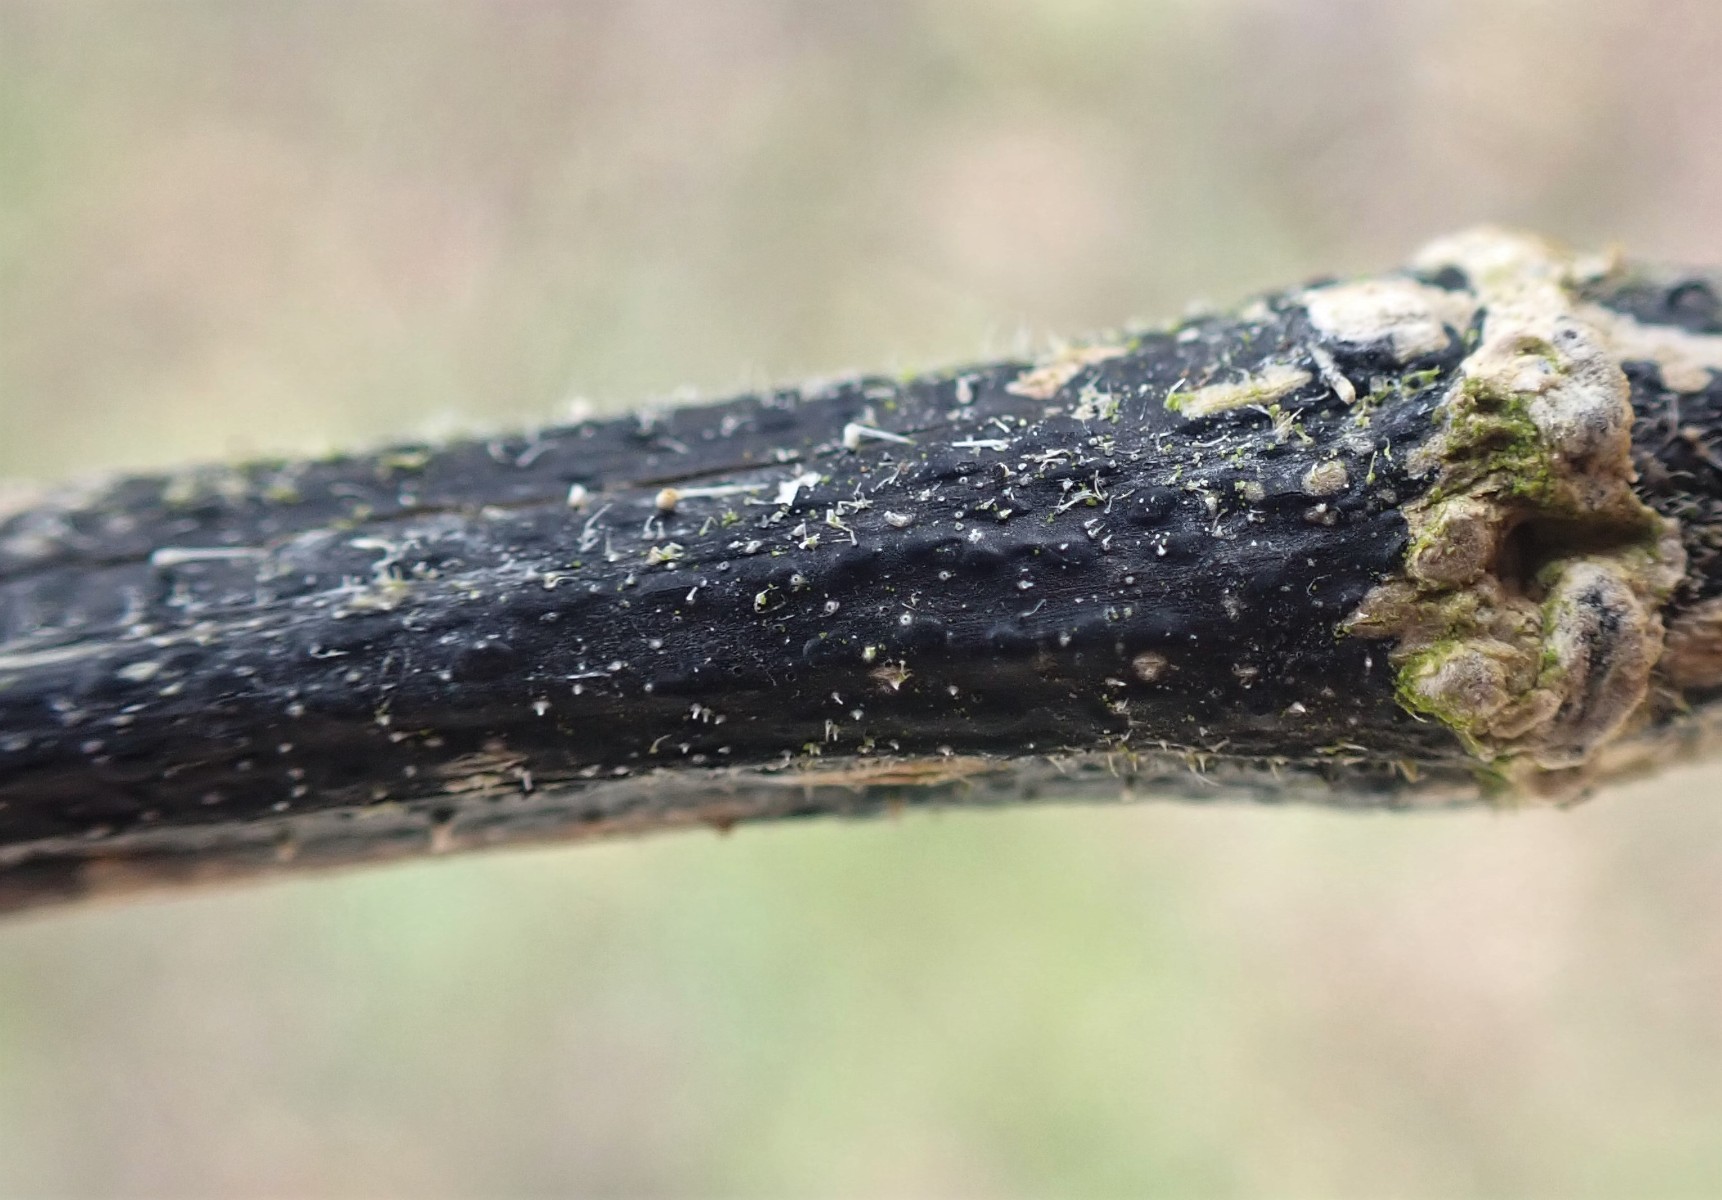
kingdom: Fungi
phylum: Ascomycota
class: Sordariomycetes
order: Diaporthales
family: Diaporthaceae
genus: Diaporthopsis
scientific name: Diaporthopsis urticae
